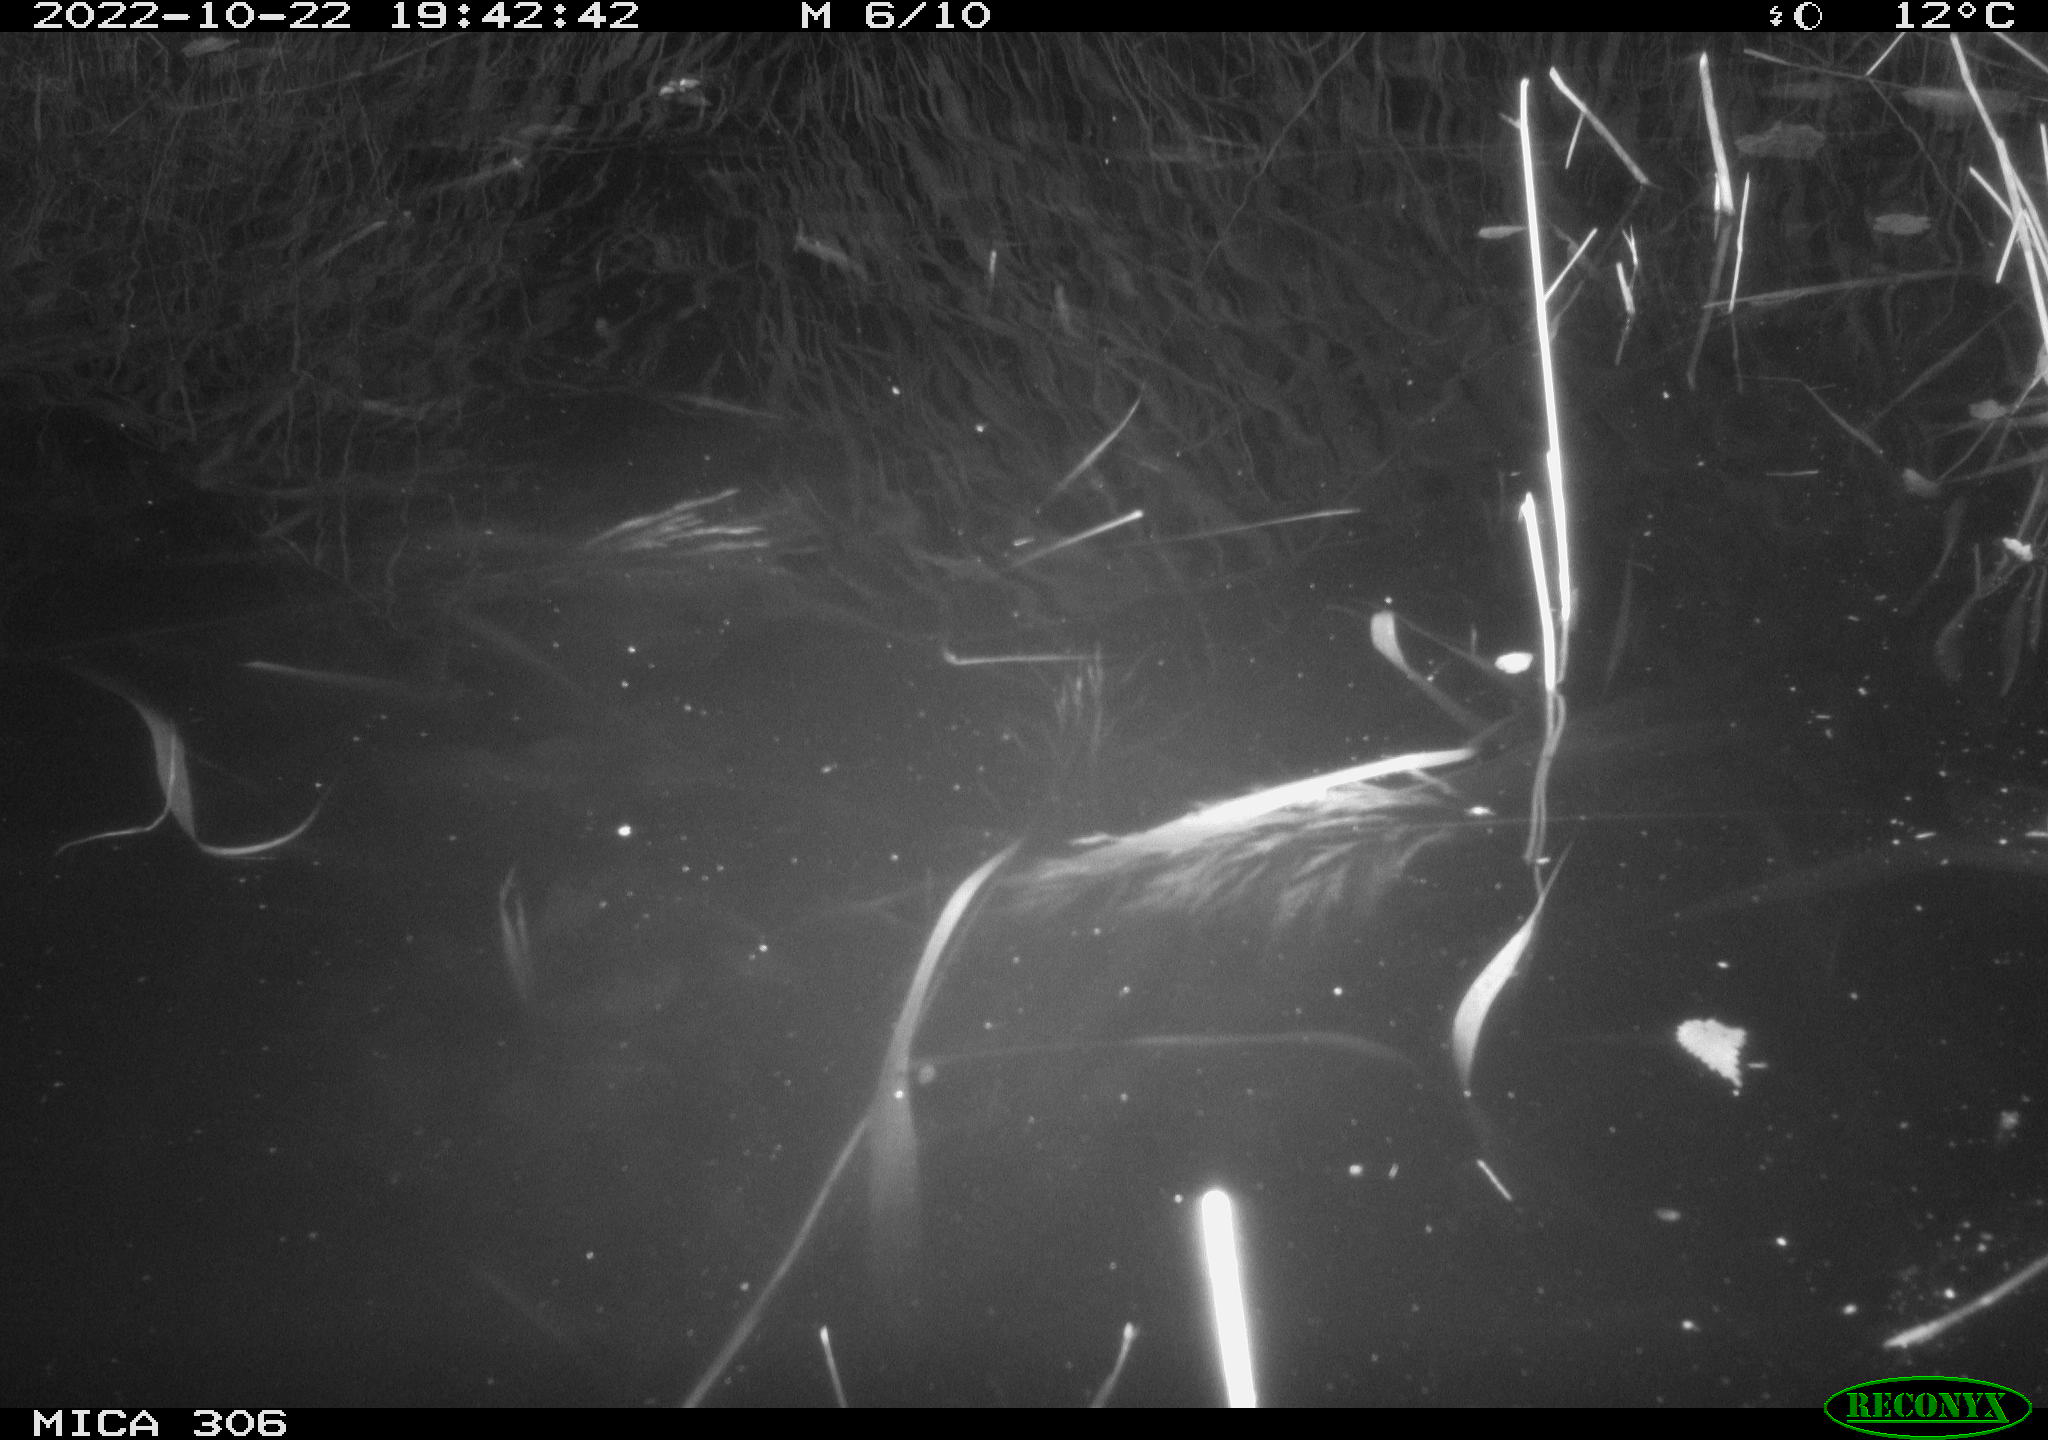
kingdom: Animalia
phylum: Chordata
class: Mammalia
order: Rodentia
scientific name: Rodentia
